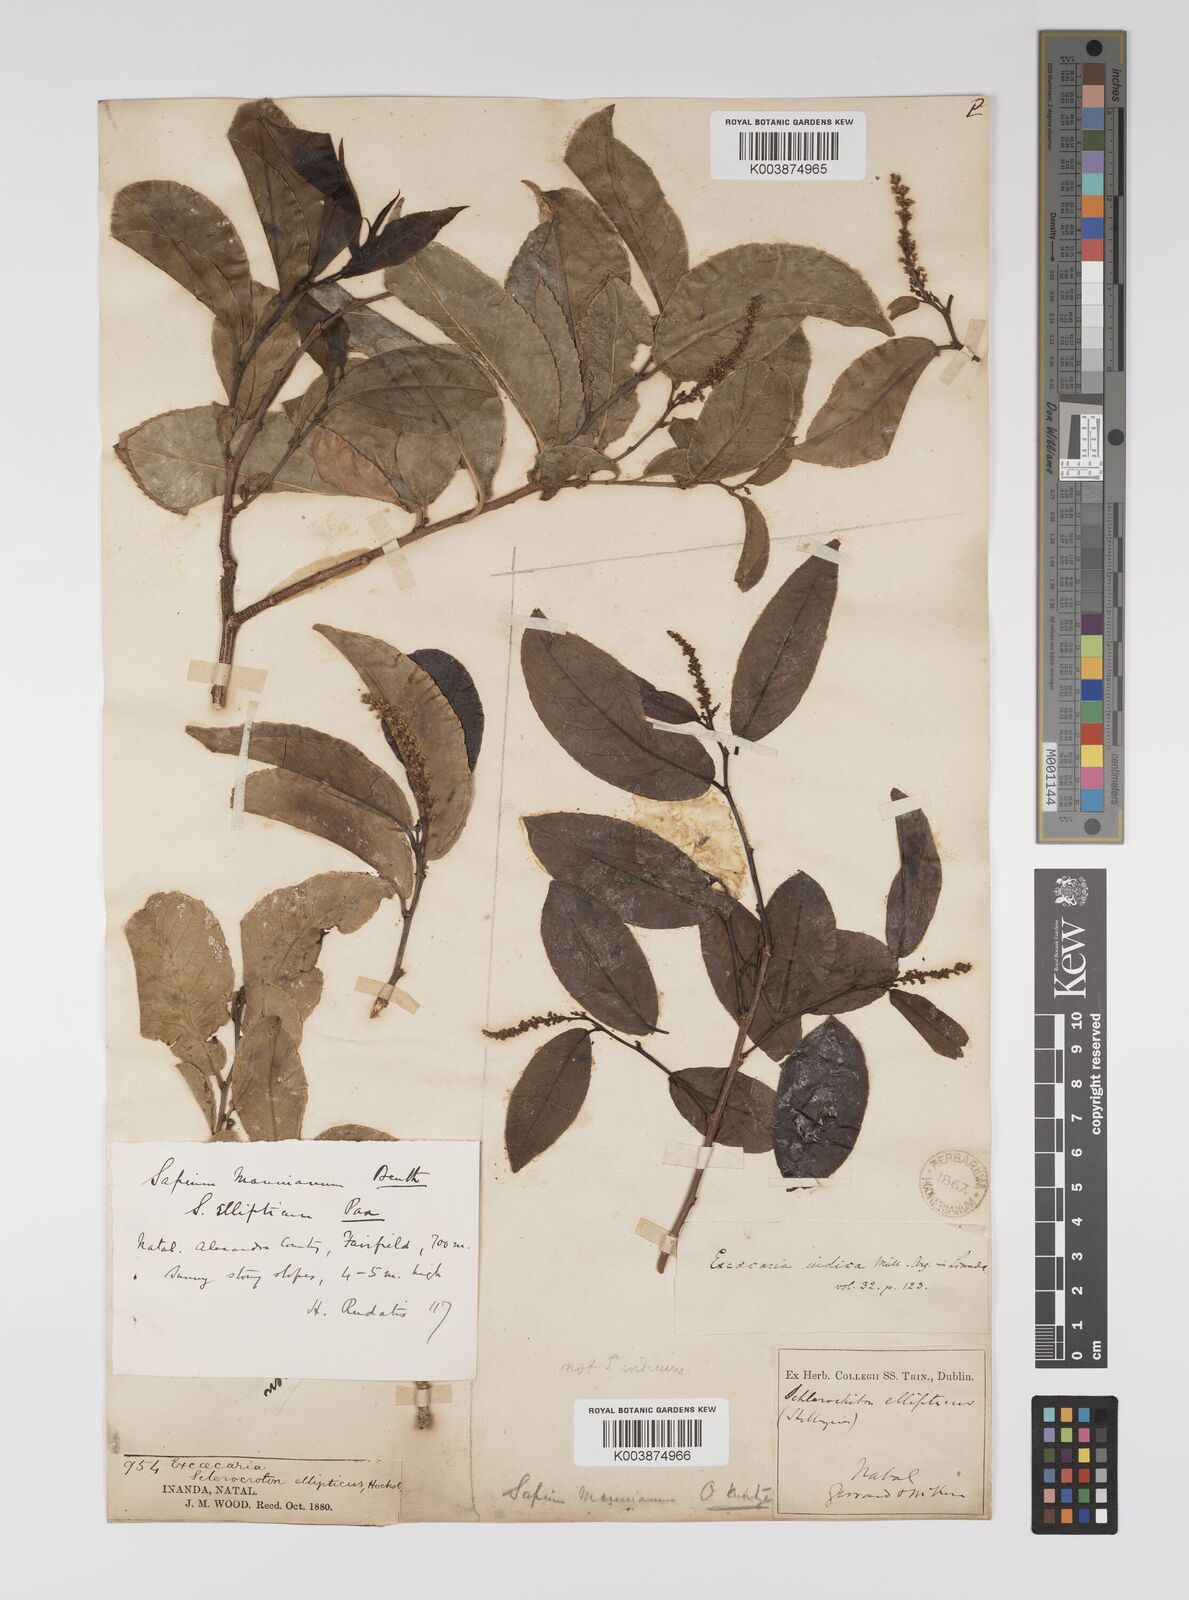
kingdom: Plantae
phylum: Tracheophyta
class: Magnoliopsida
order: Malpighiales
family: Euphorbiaceae
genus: Shirakiopsis
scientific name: Shirakiopsis elliptica
